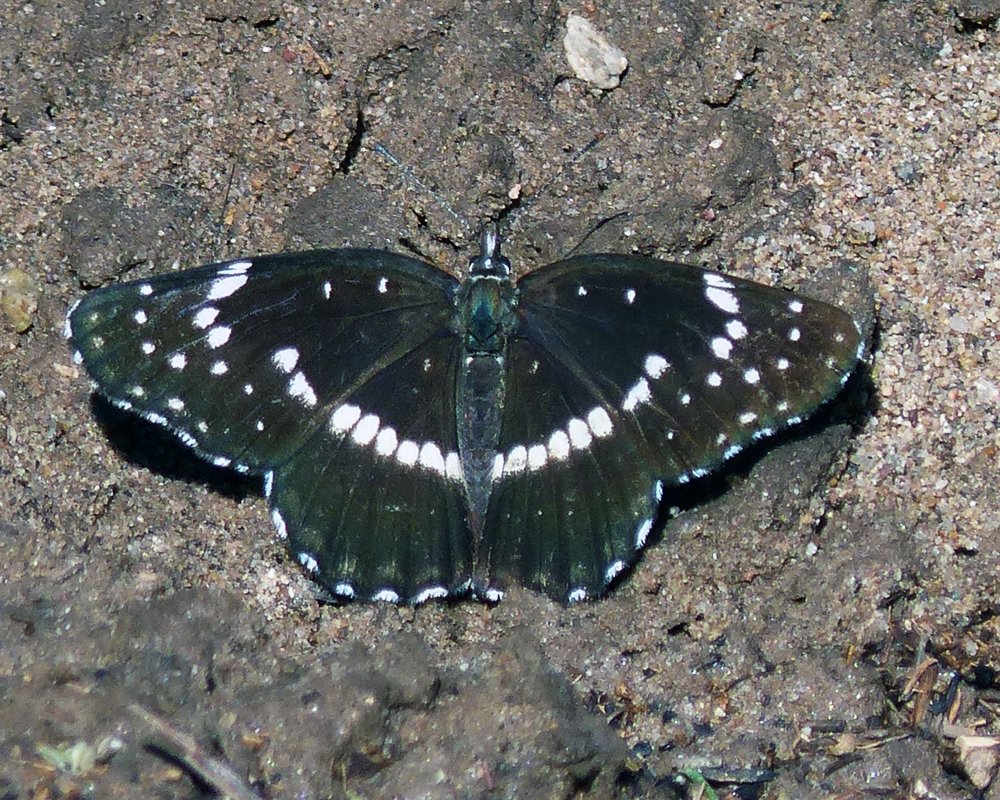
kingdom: Animalia
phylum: Arthropoda
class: Insecta
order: Lepidoptera
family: Nymphalidae
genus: Chlosyne
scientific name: Chlosyne lacinia
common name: Bordered Patch
